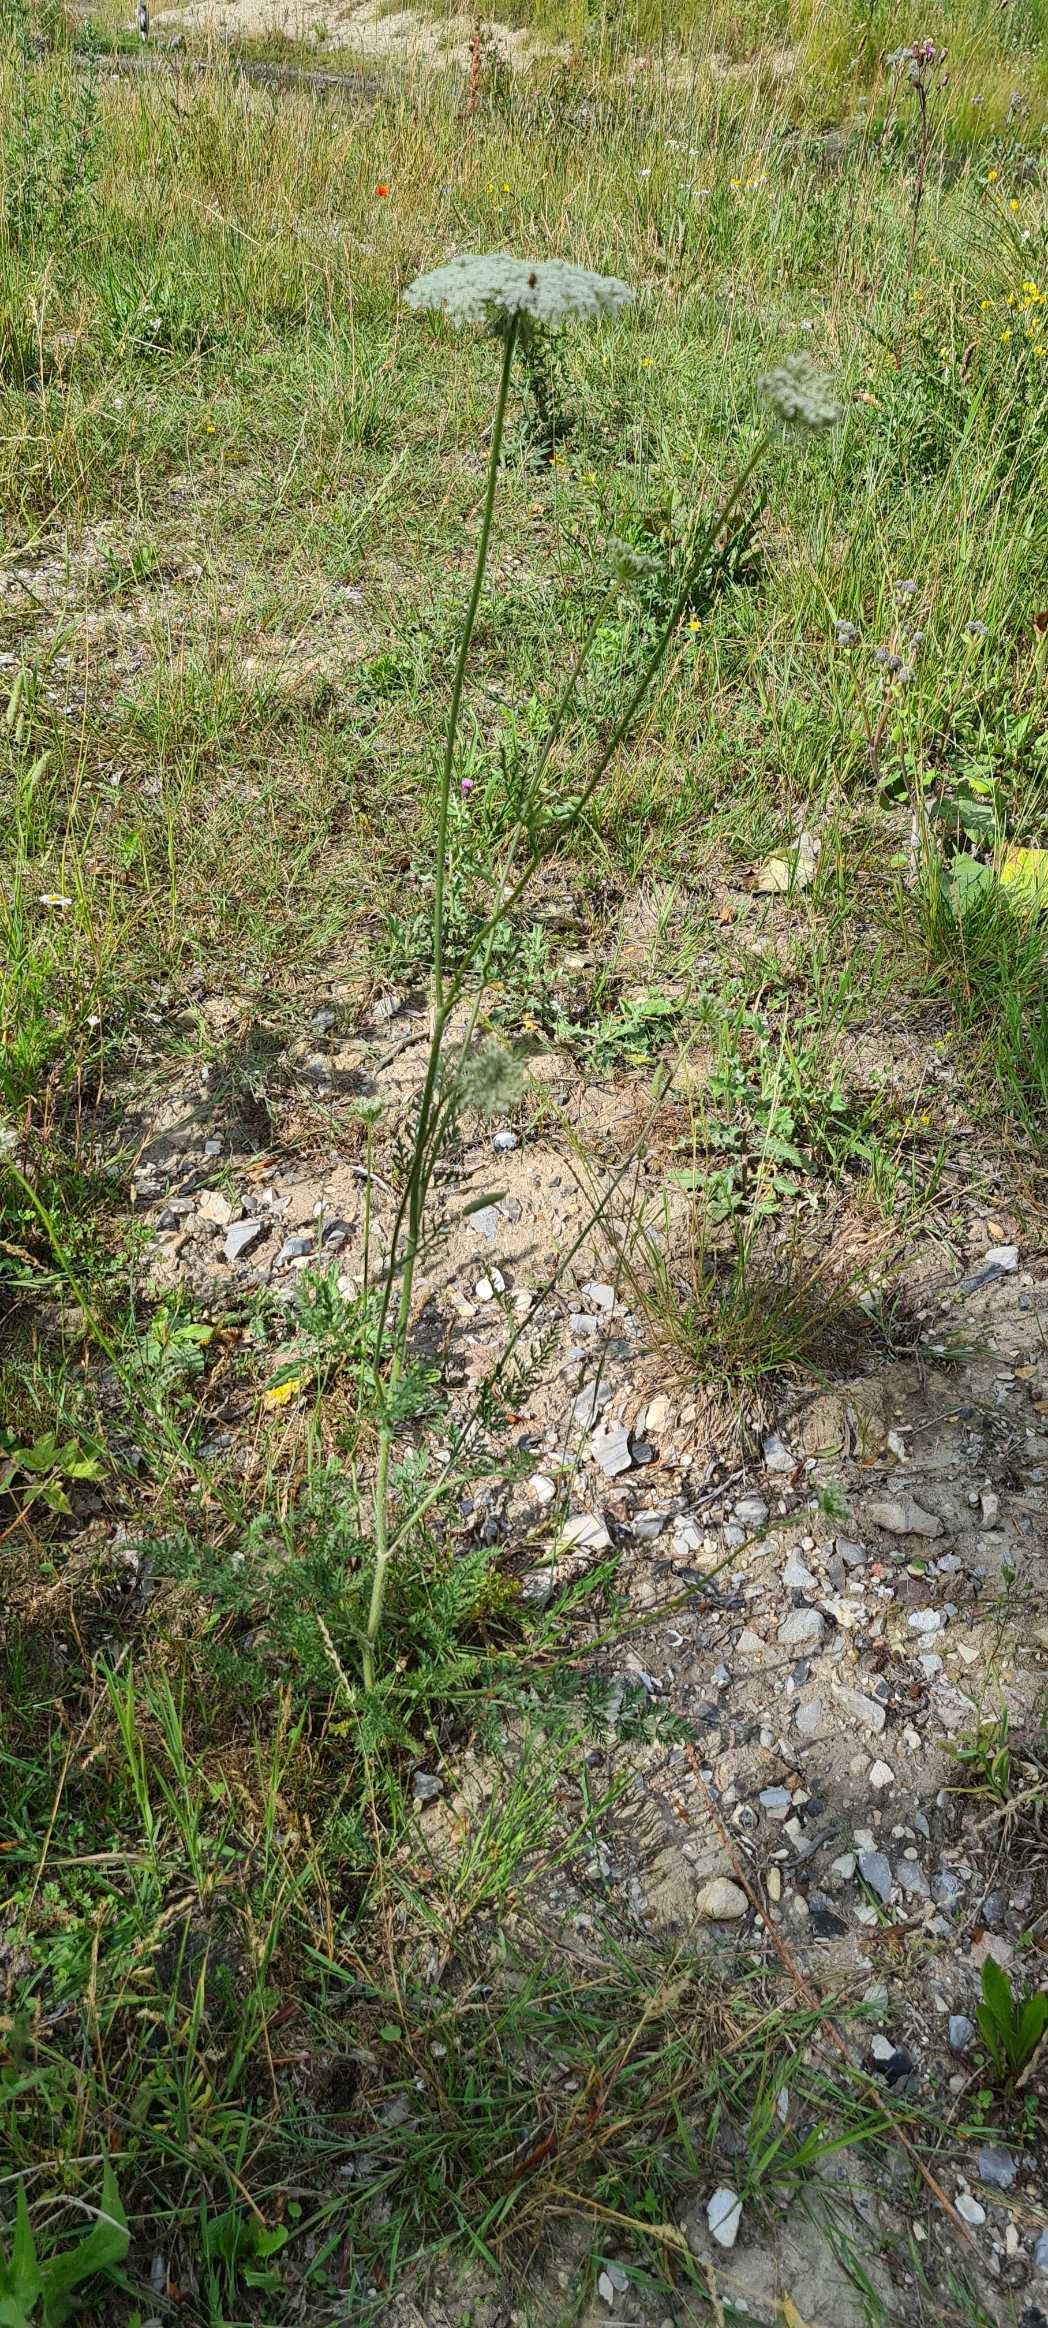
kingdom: Plantae
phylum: Tracheophyta
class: Magnoliopsida
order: Apiales
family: Apiaceae
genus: Daucus
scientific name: Daucus carota
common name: Gulerod
